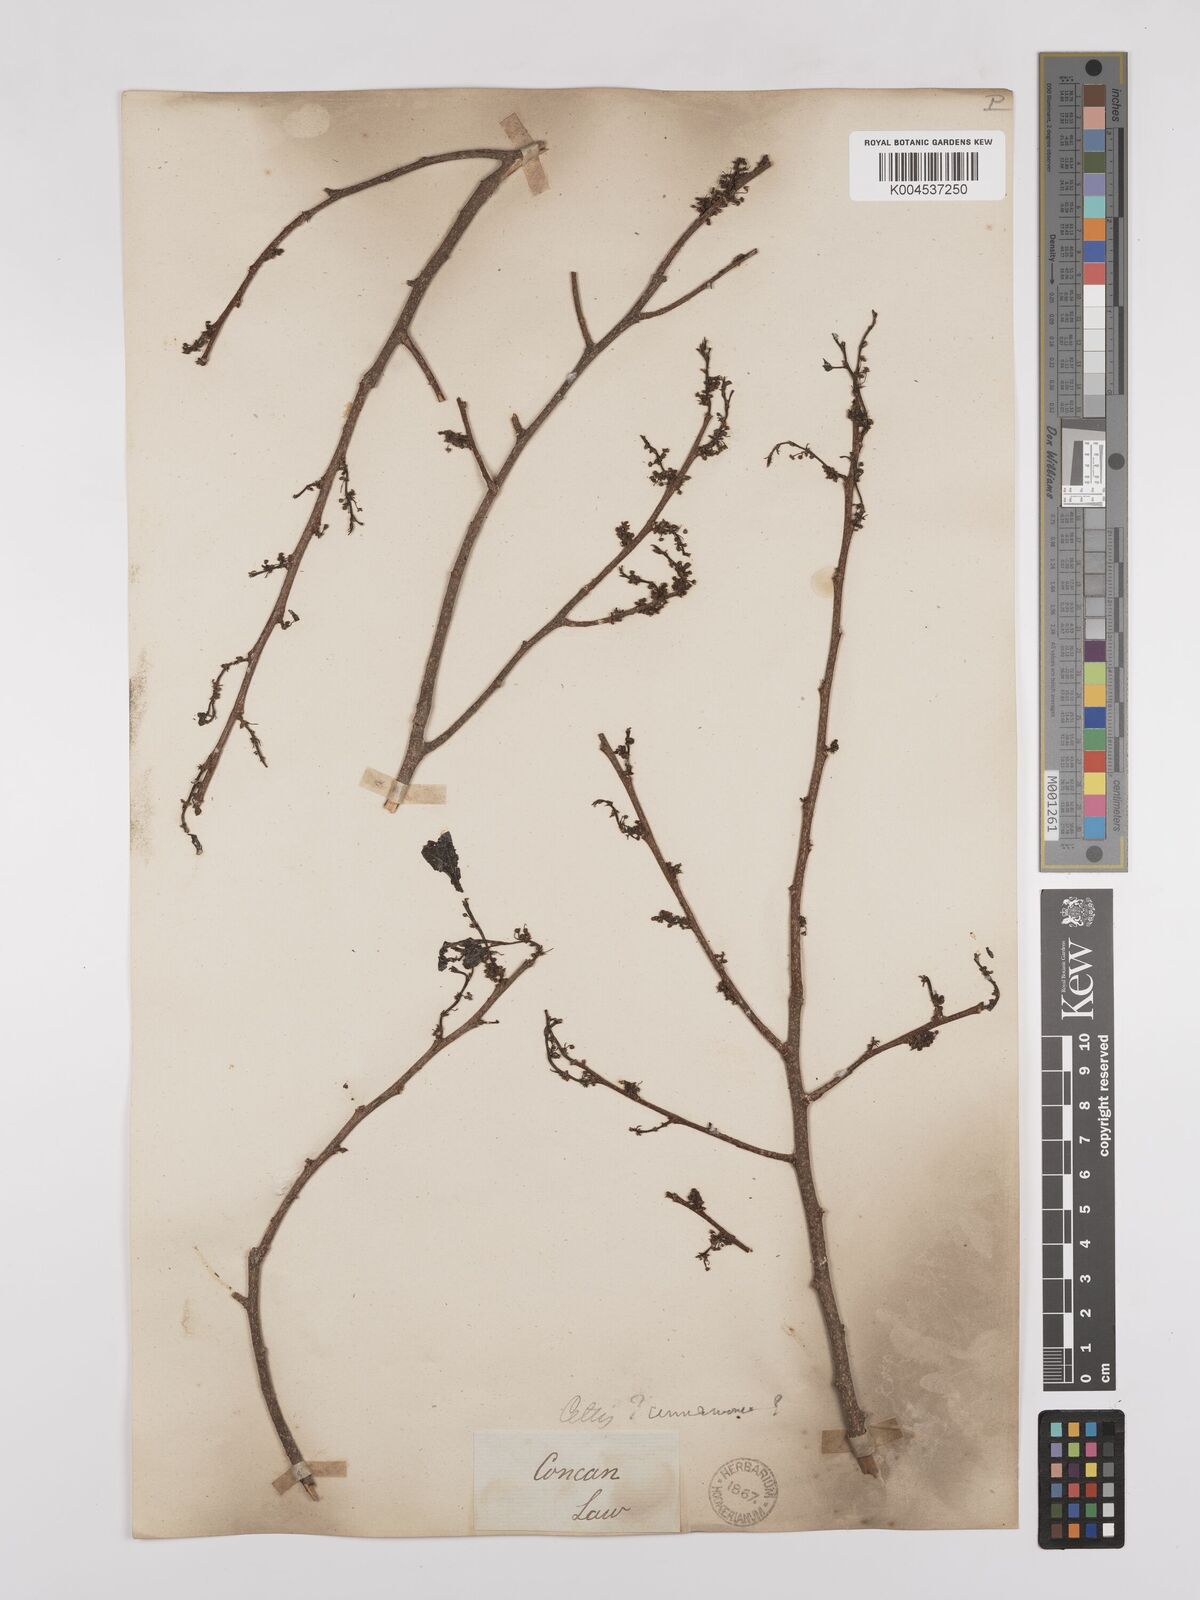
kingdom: Plantae
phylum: Tracheophyta
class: Magnoliopsida
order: Rosales
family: Cannabaceae
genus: Celtis
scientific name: Celtis timorensis
